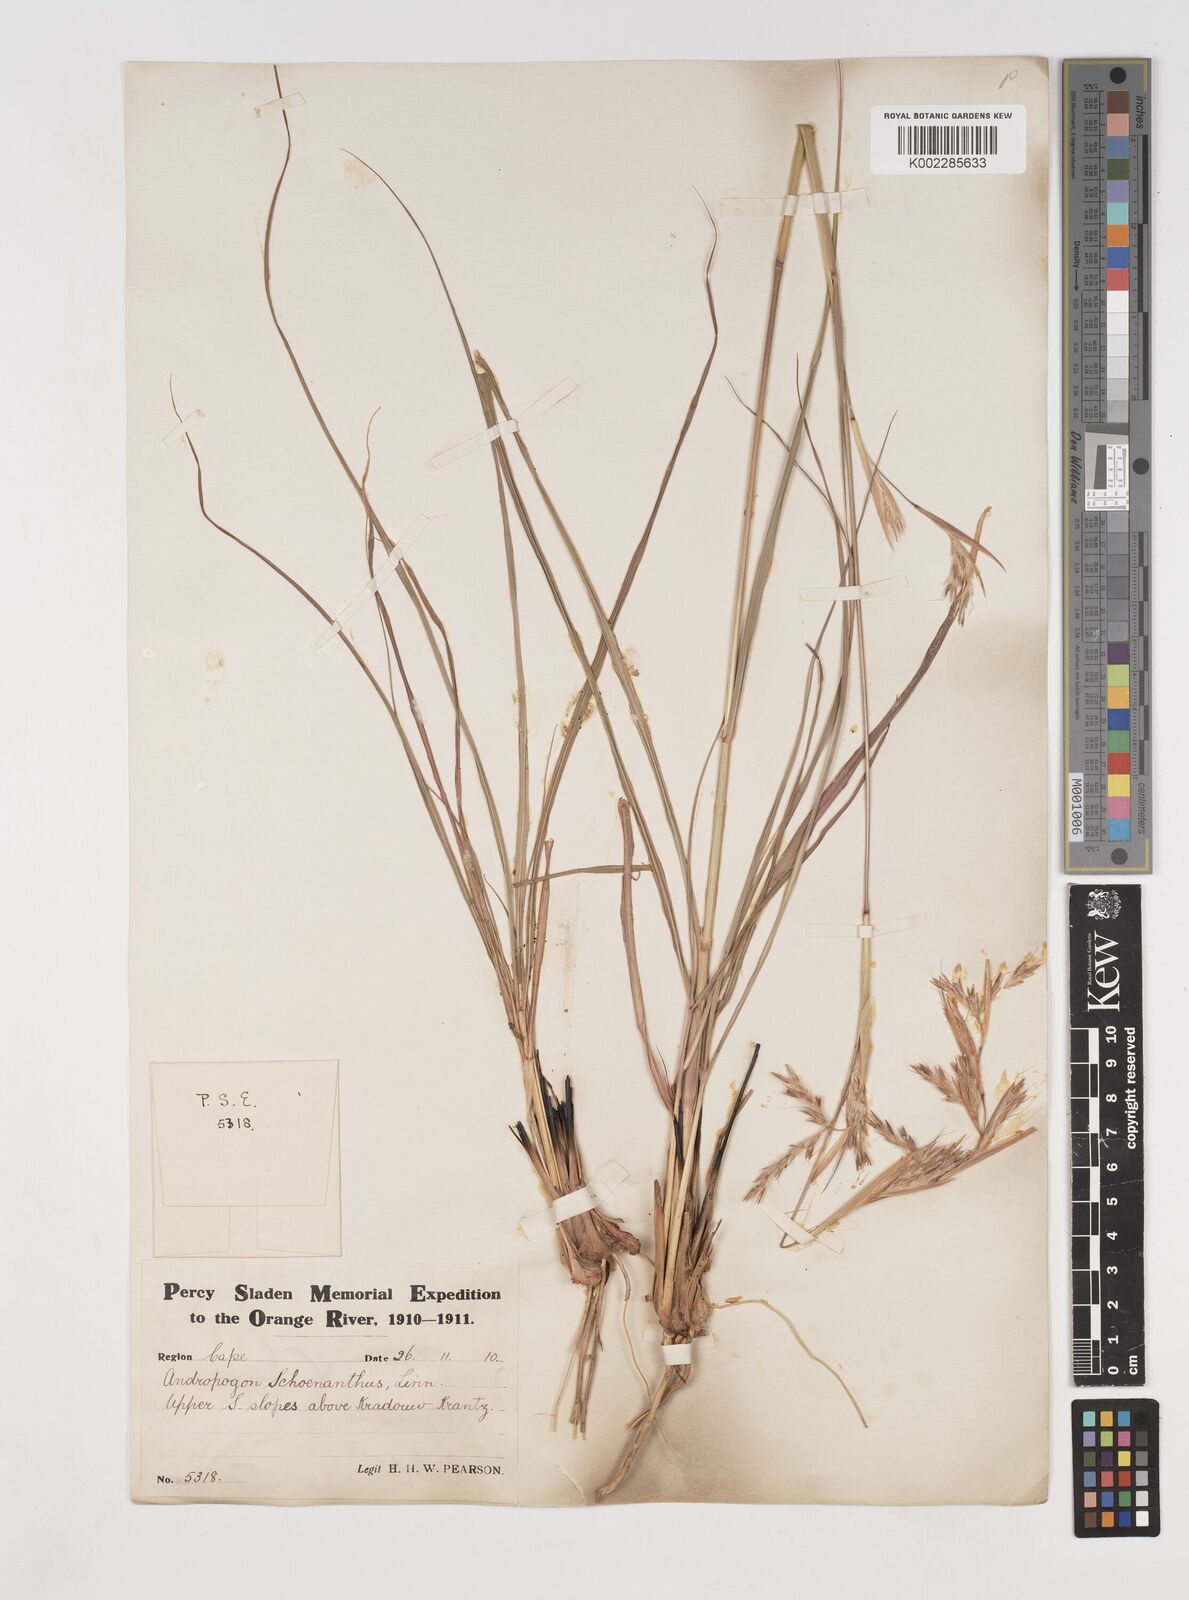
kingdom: Plantae
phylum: Tracheophyta
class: Liliopsida
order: Poales
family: Poaceae
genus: Cymbopogon
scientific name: Cymbopogon marginatus
